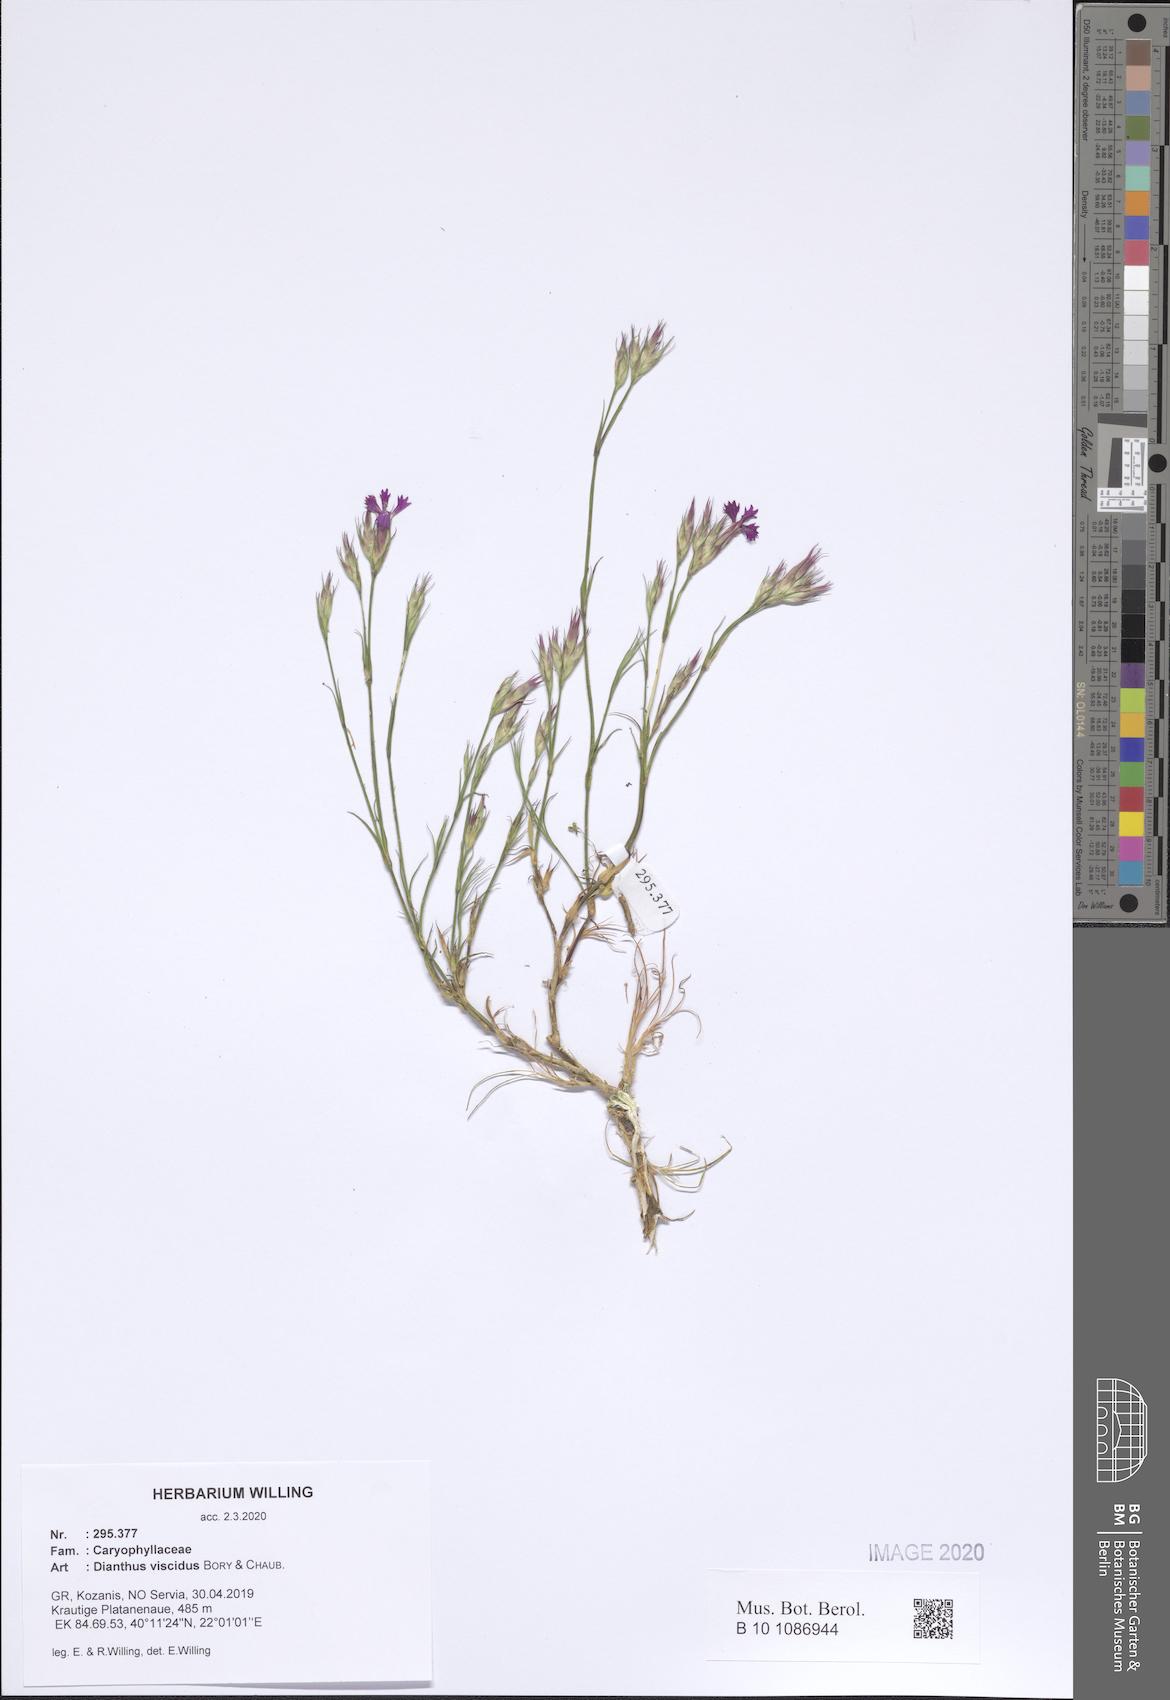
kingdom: Plantae
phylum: Tracheophyta
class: Magnoliopsida
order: Caryophyllales
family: Caryophyllaceae
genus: Dianthus
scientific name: Dianthus viscidus
